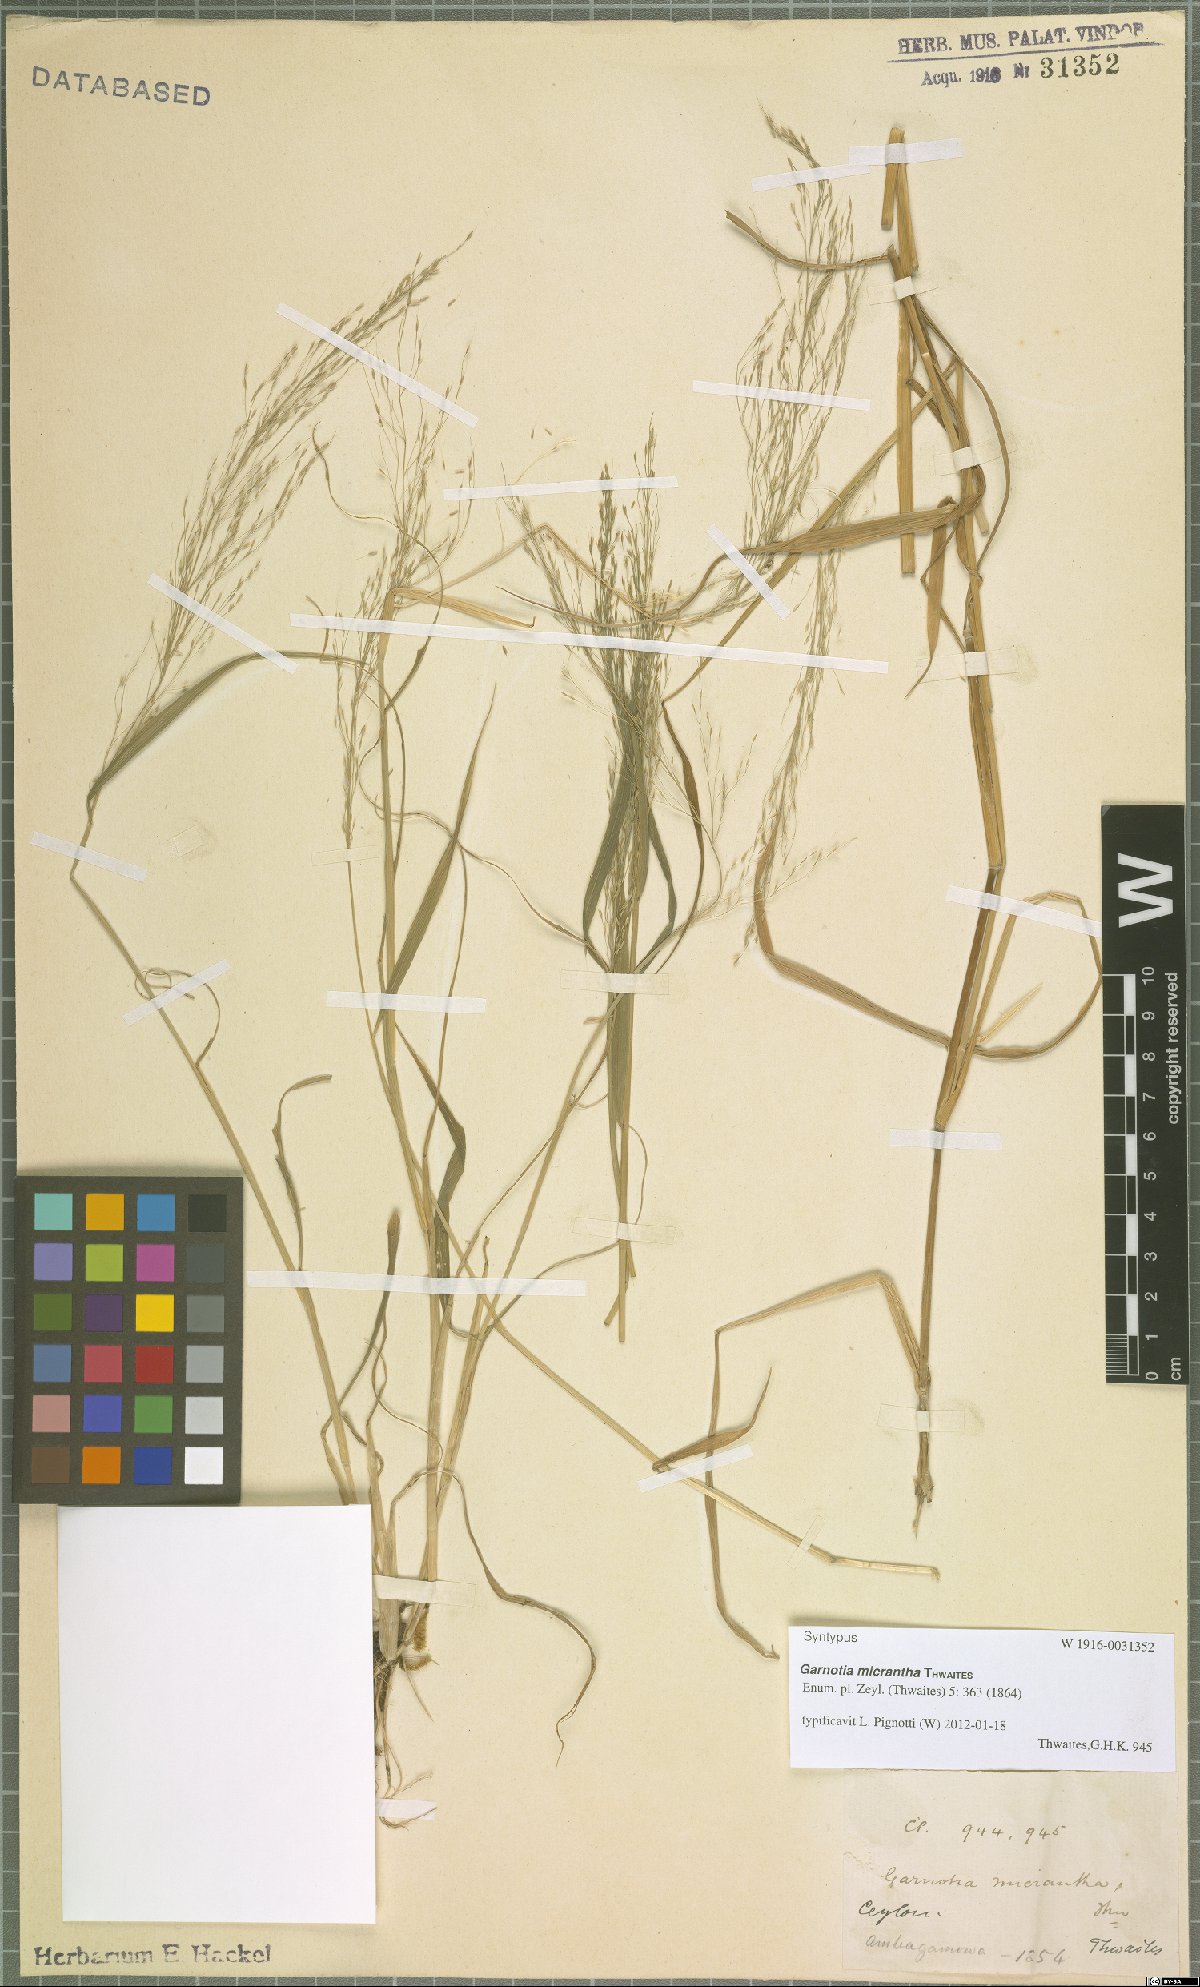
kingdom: Plantae
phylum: Tracheophyta
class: Liliopsida
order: Poales
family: Poaceae
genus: Garnotia
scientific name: Garnotia micrantha
